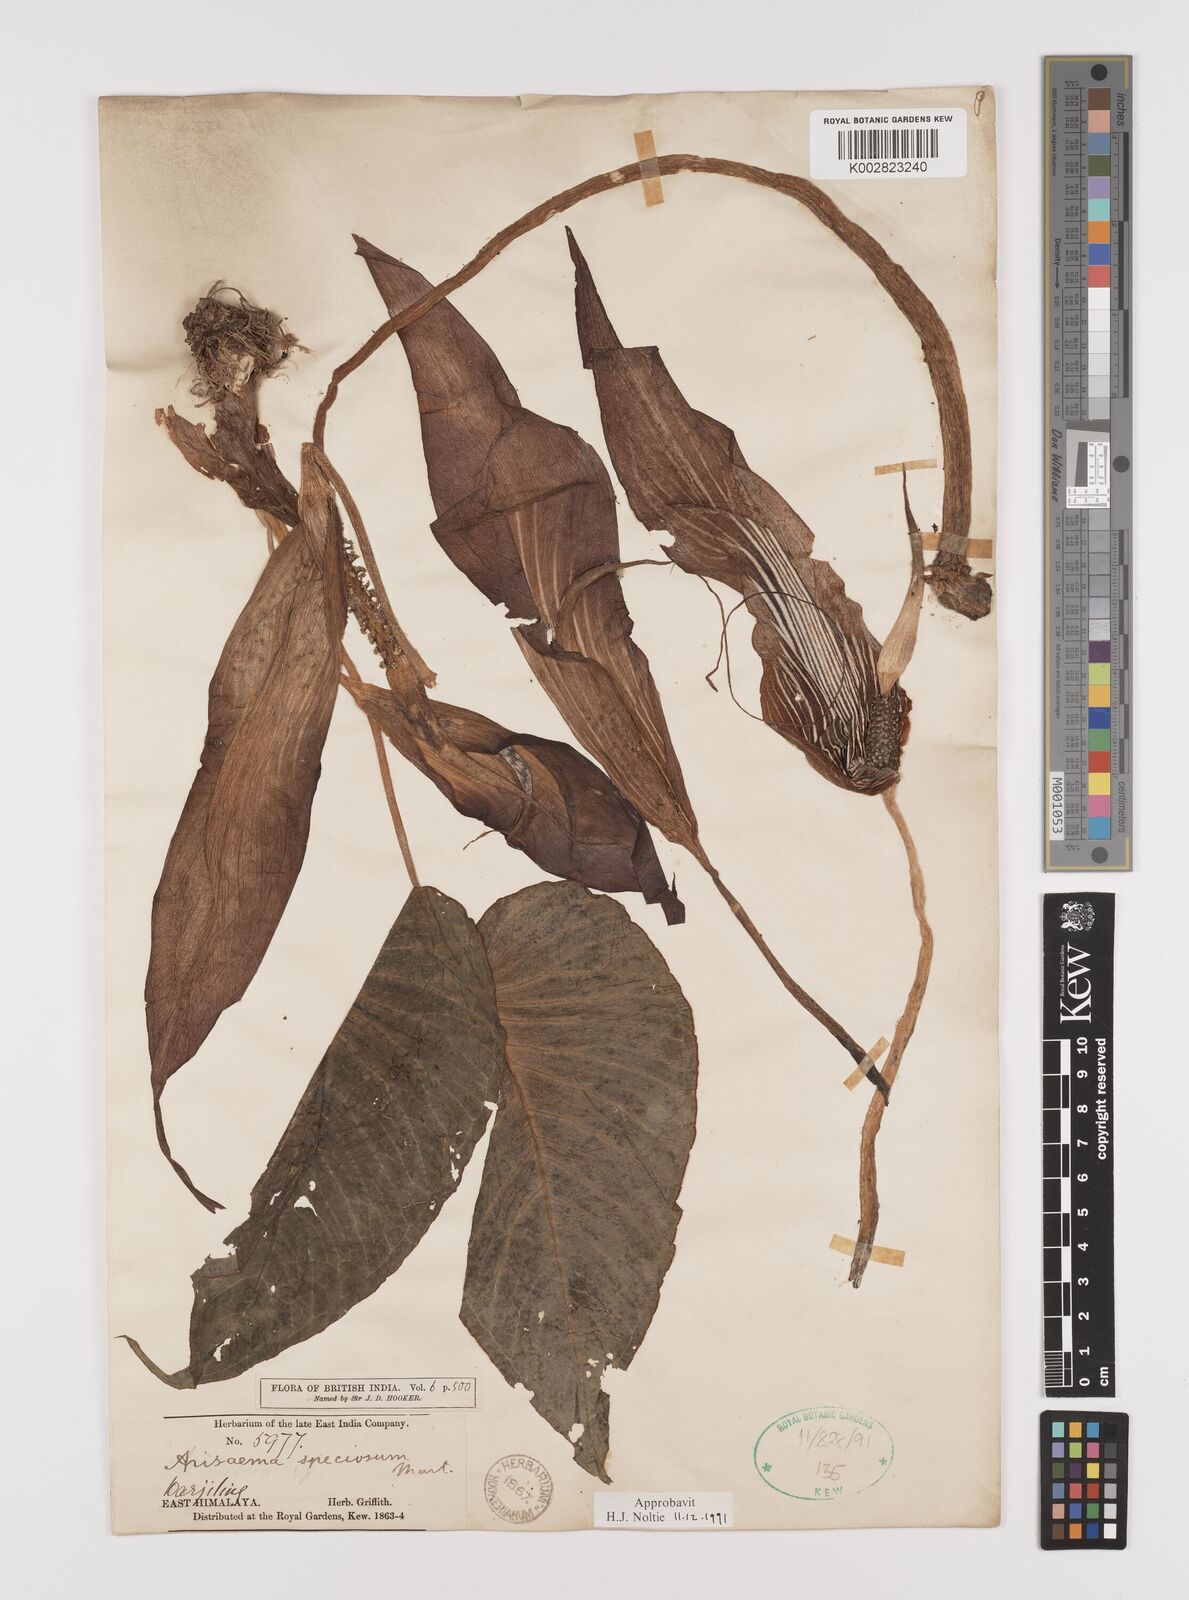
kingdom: Plantae
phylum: Tracheophyta
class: Liliopsida
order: Alismatales
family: Araceae
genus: Arisaema
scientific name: Arisaema speciosum
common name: Showy cobra-lily
